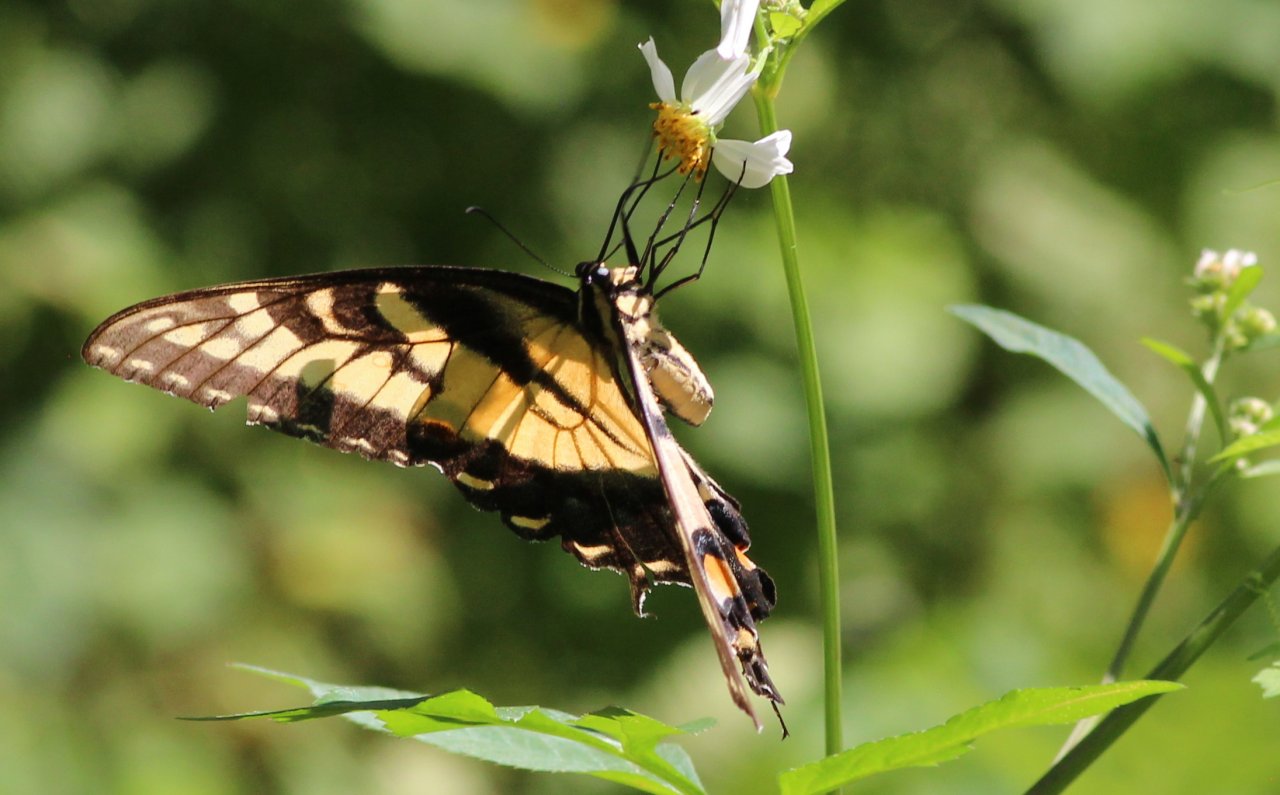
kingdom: Animalia
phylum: Arthropoda
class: Insecta
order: Lepidoptera
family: Papilionidae
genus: Pterourus
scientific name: Pterourus glaucus
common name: Eastern Tiger Swallowtail
